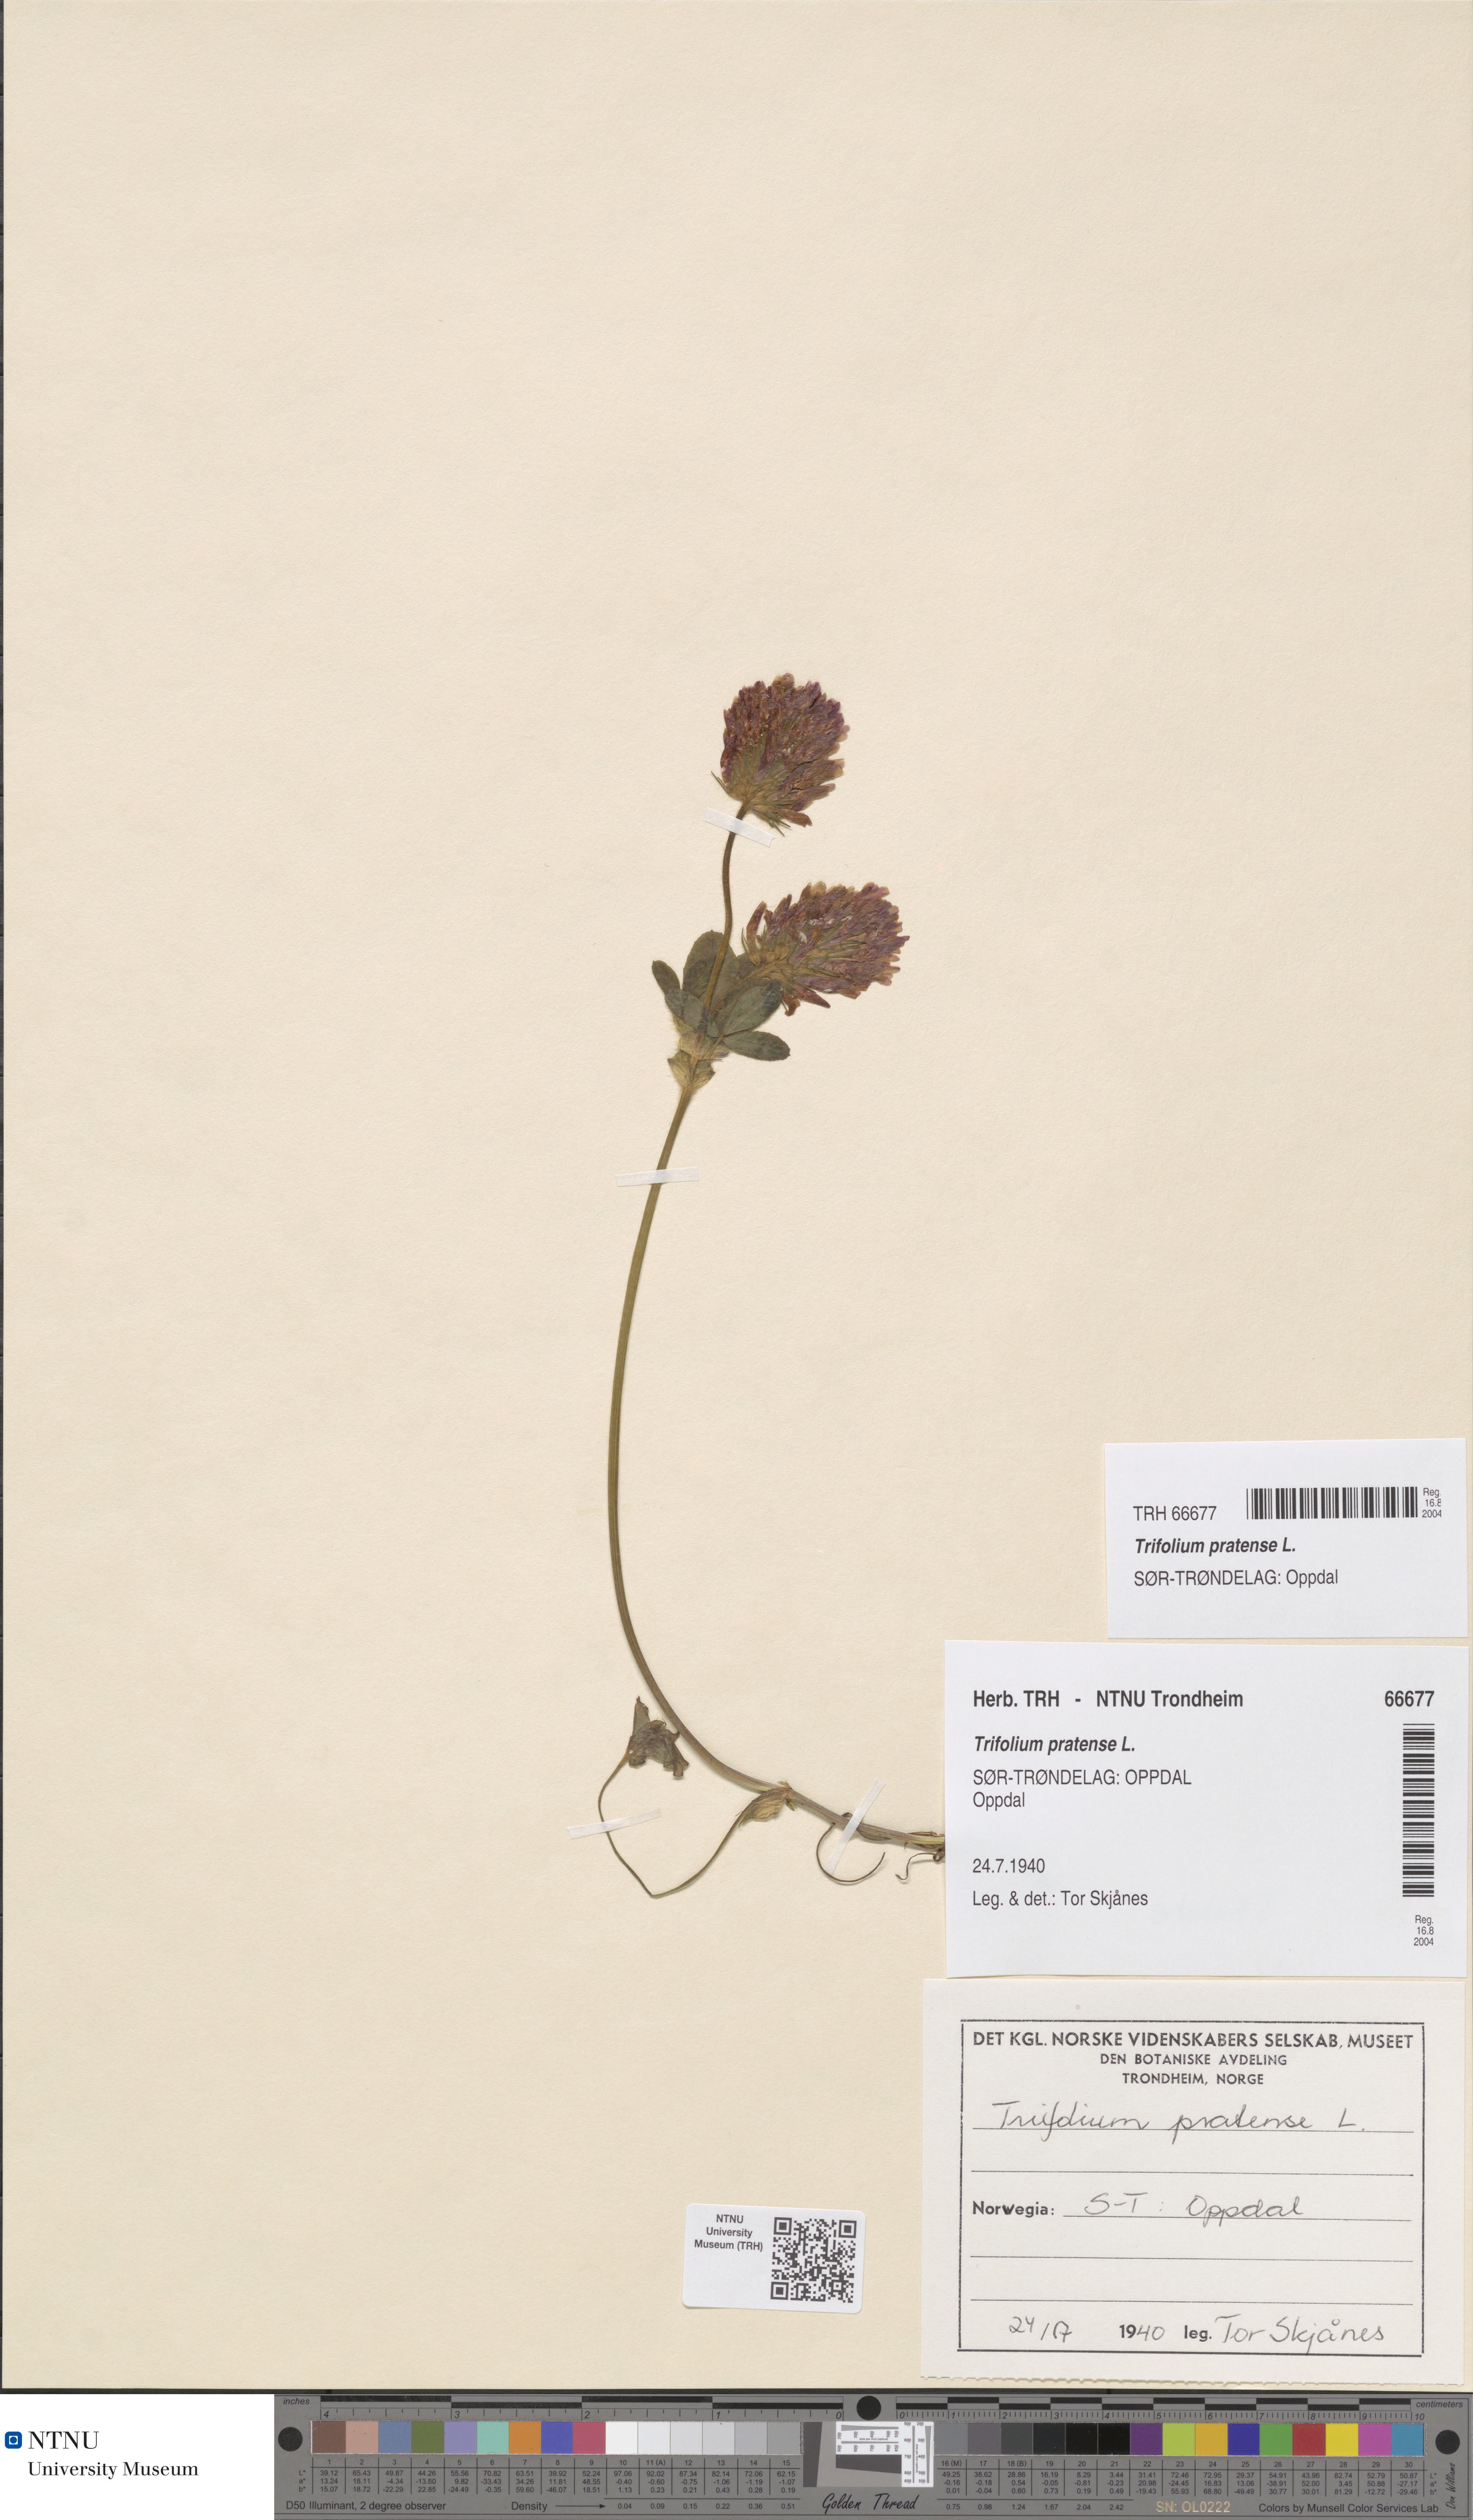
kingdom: Plantae
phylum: Tracheophyta
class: Magnoliopsida
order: Fabales
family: Fabaceae
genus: Trifolium
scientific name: Trifolium pratense
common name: Red clover
